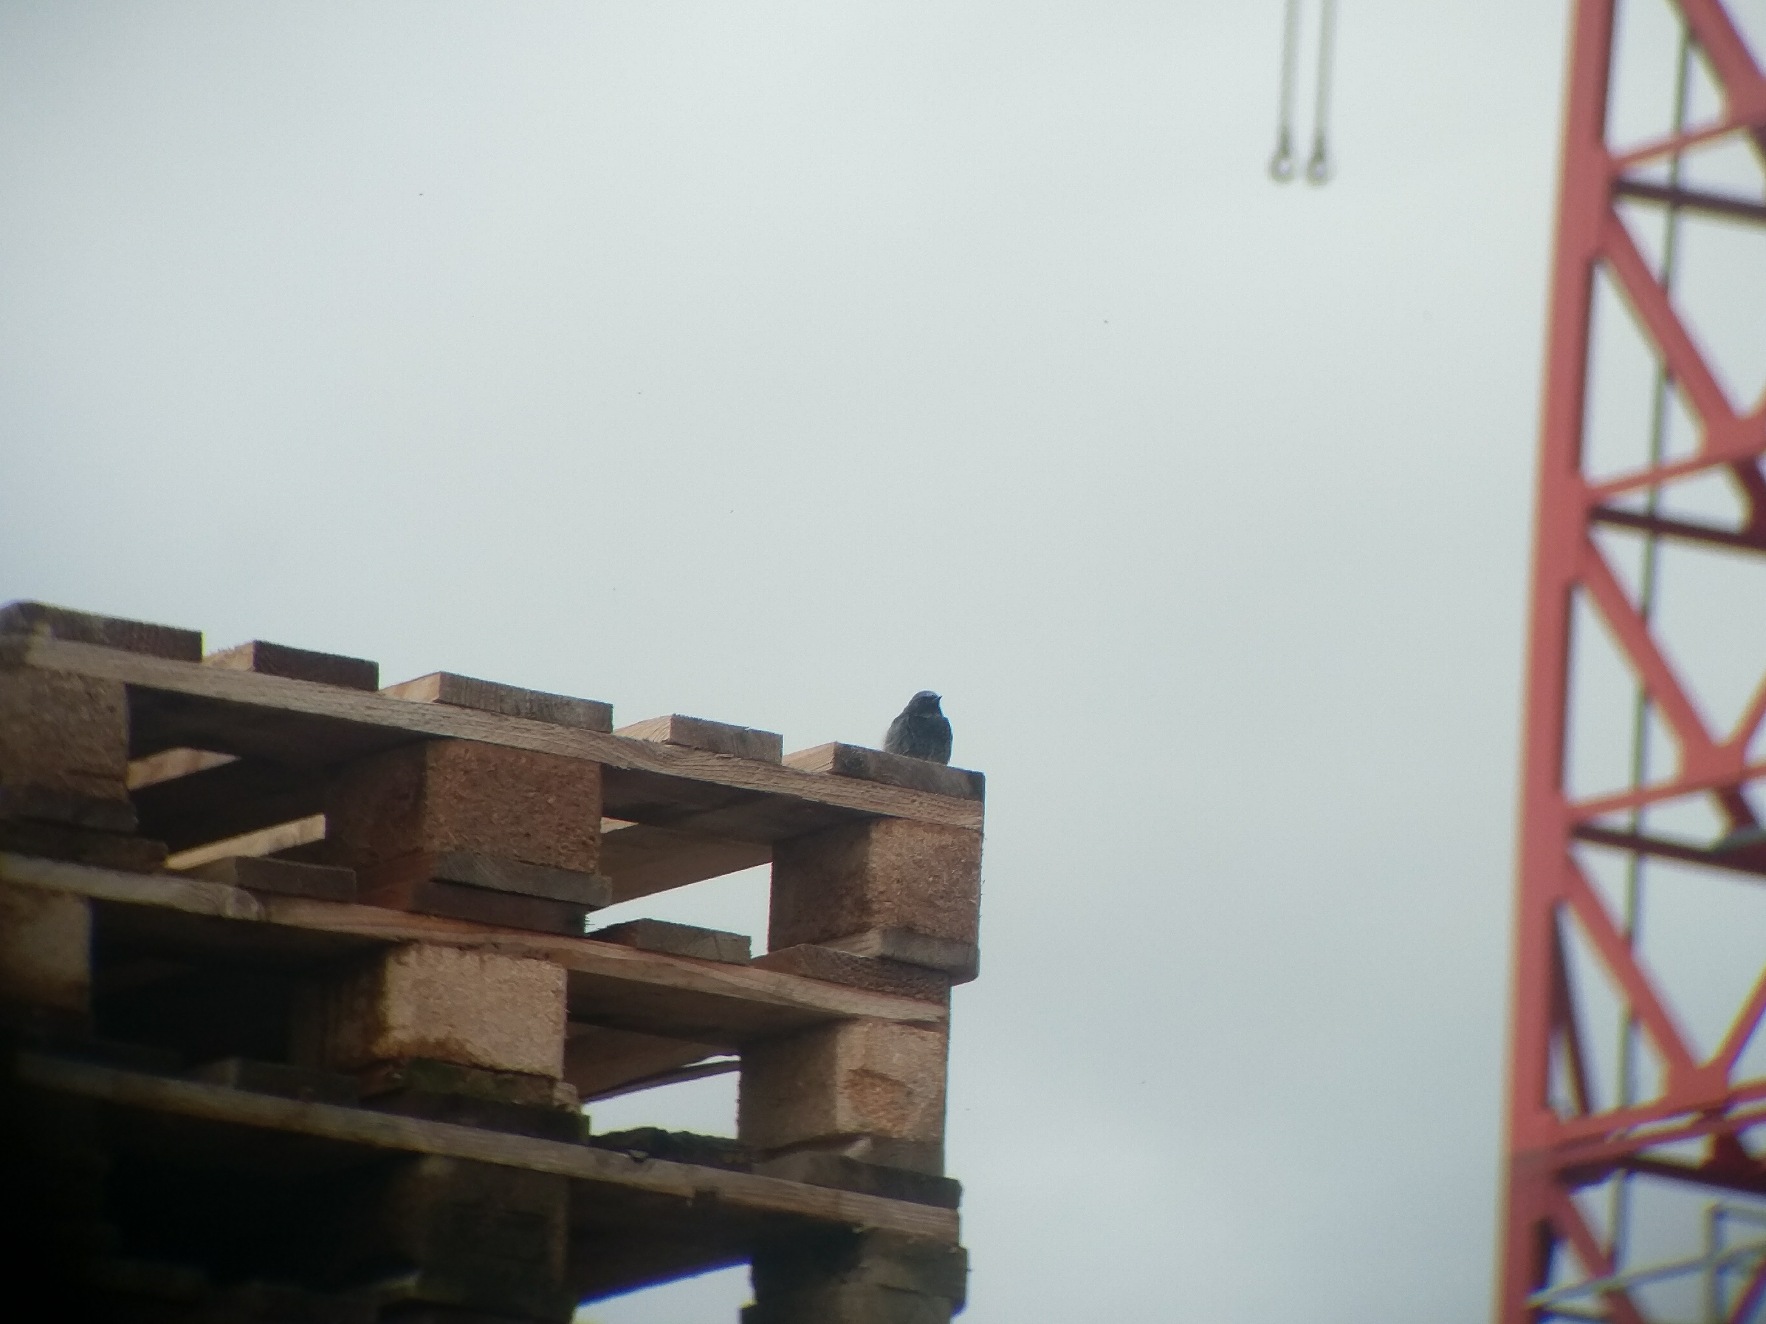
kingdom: Animalia
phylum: Chordata
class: Aves
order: Passeriformes
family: Muscicapidae
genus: Phoenicurus
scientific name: Phoenicurus ochruros
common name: Husrødstjert
